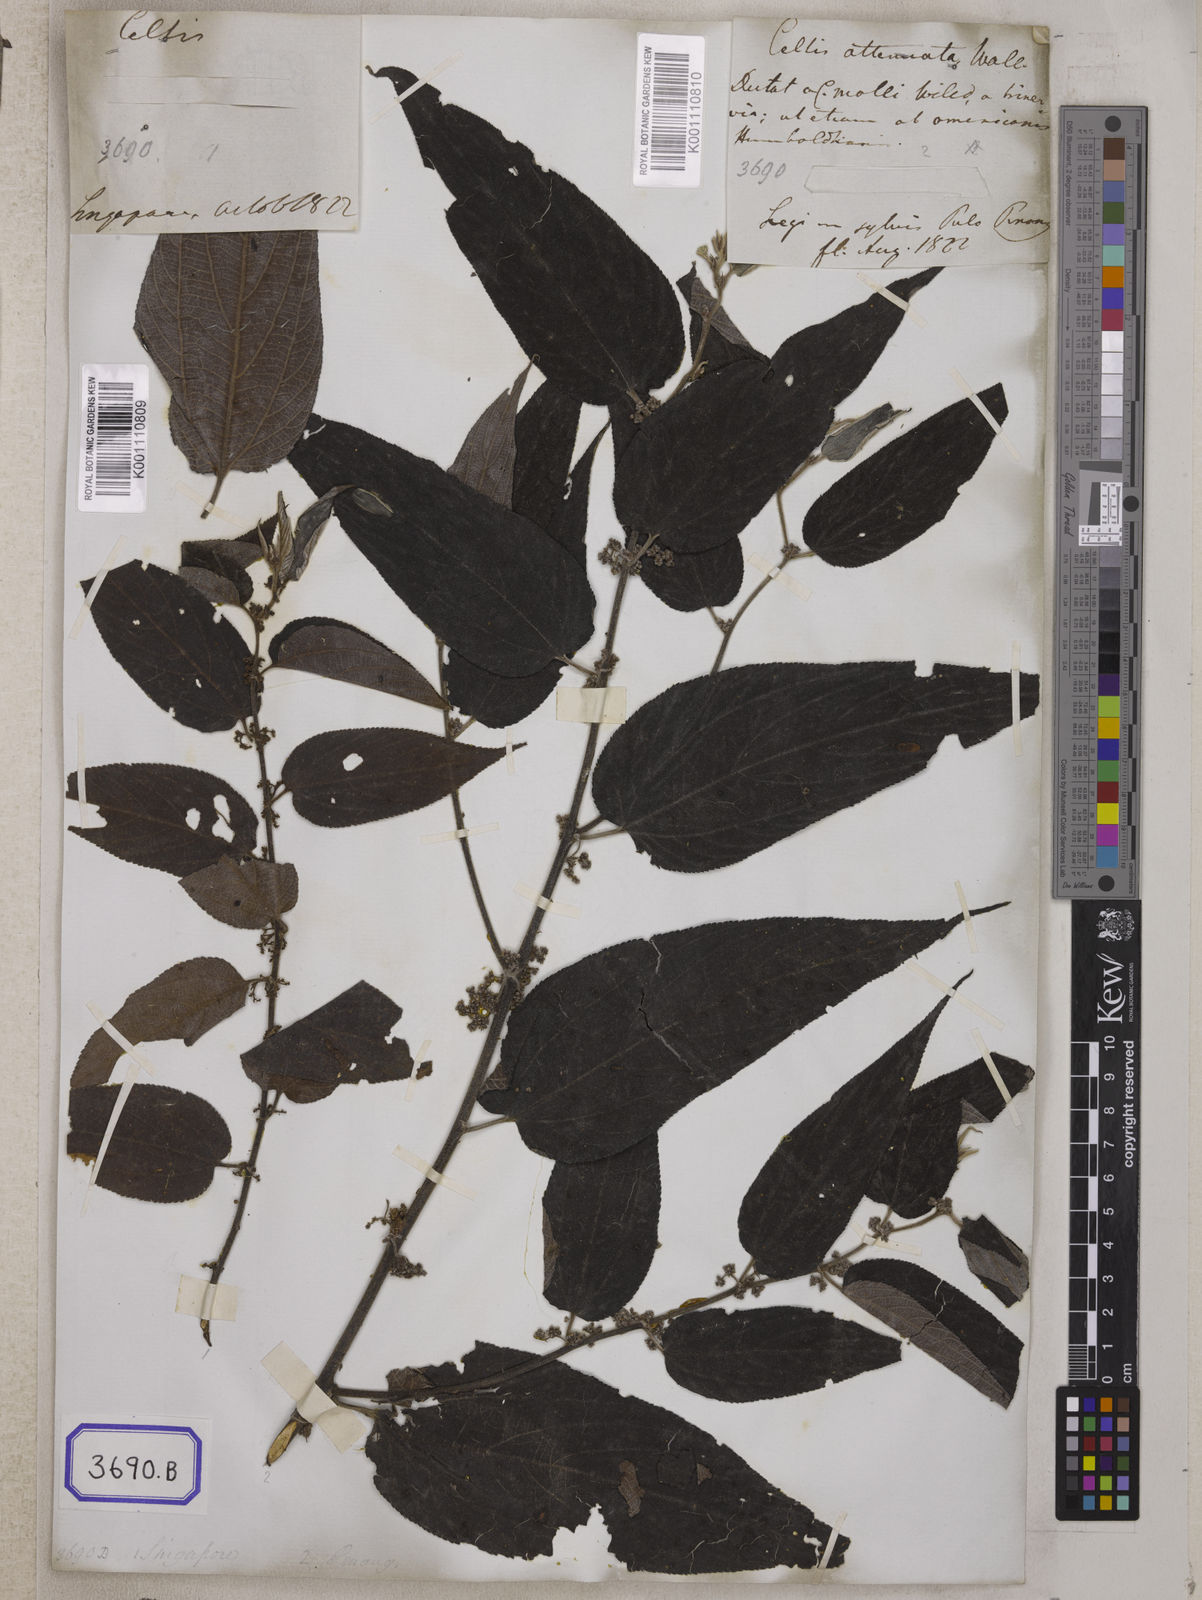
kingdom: Plantae
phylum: Tracheophyta
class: Magnoliopsida
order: Rosales
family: Cannabaceae
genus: Trema
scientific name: Trema tomentosum
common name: Peach-leaf-poisonbush
